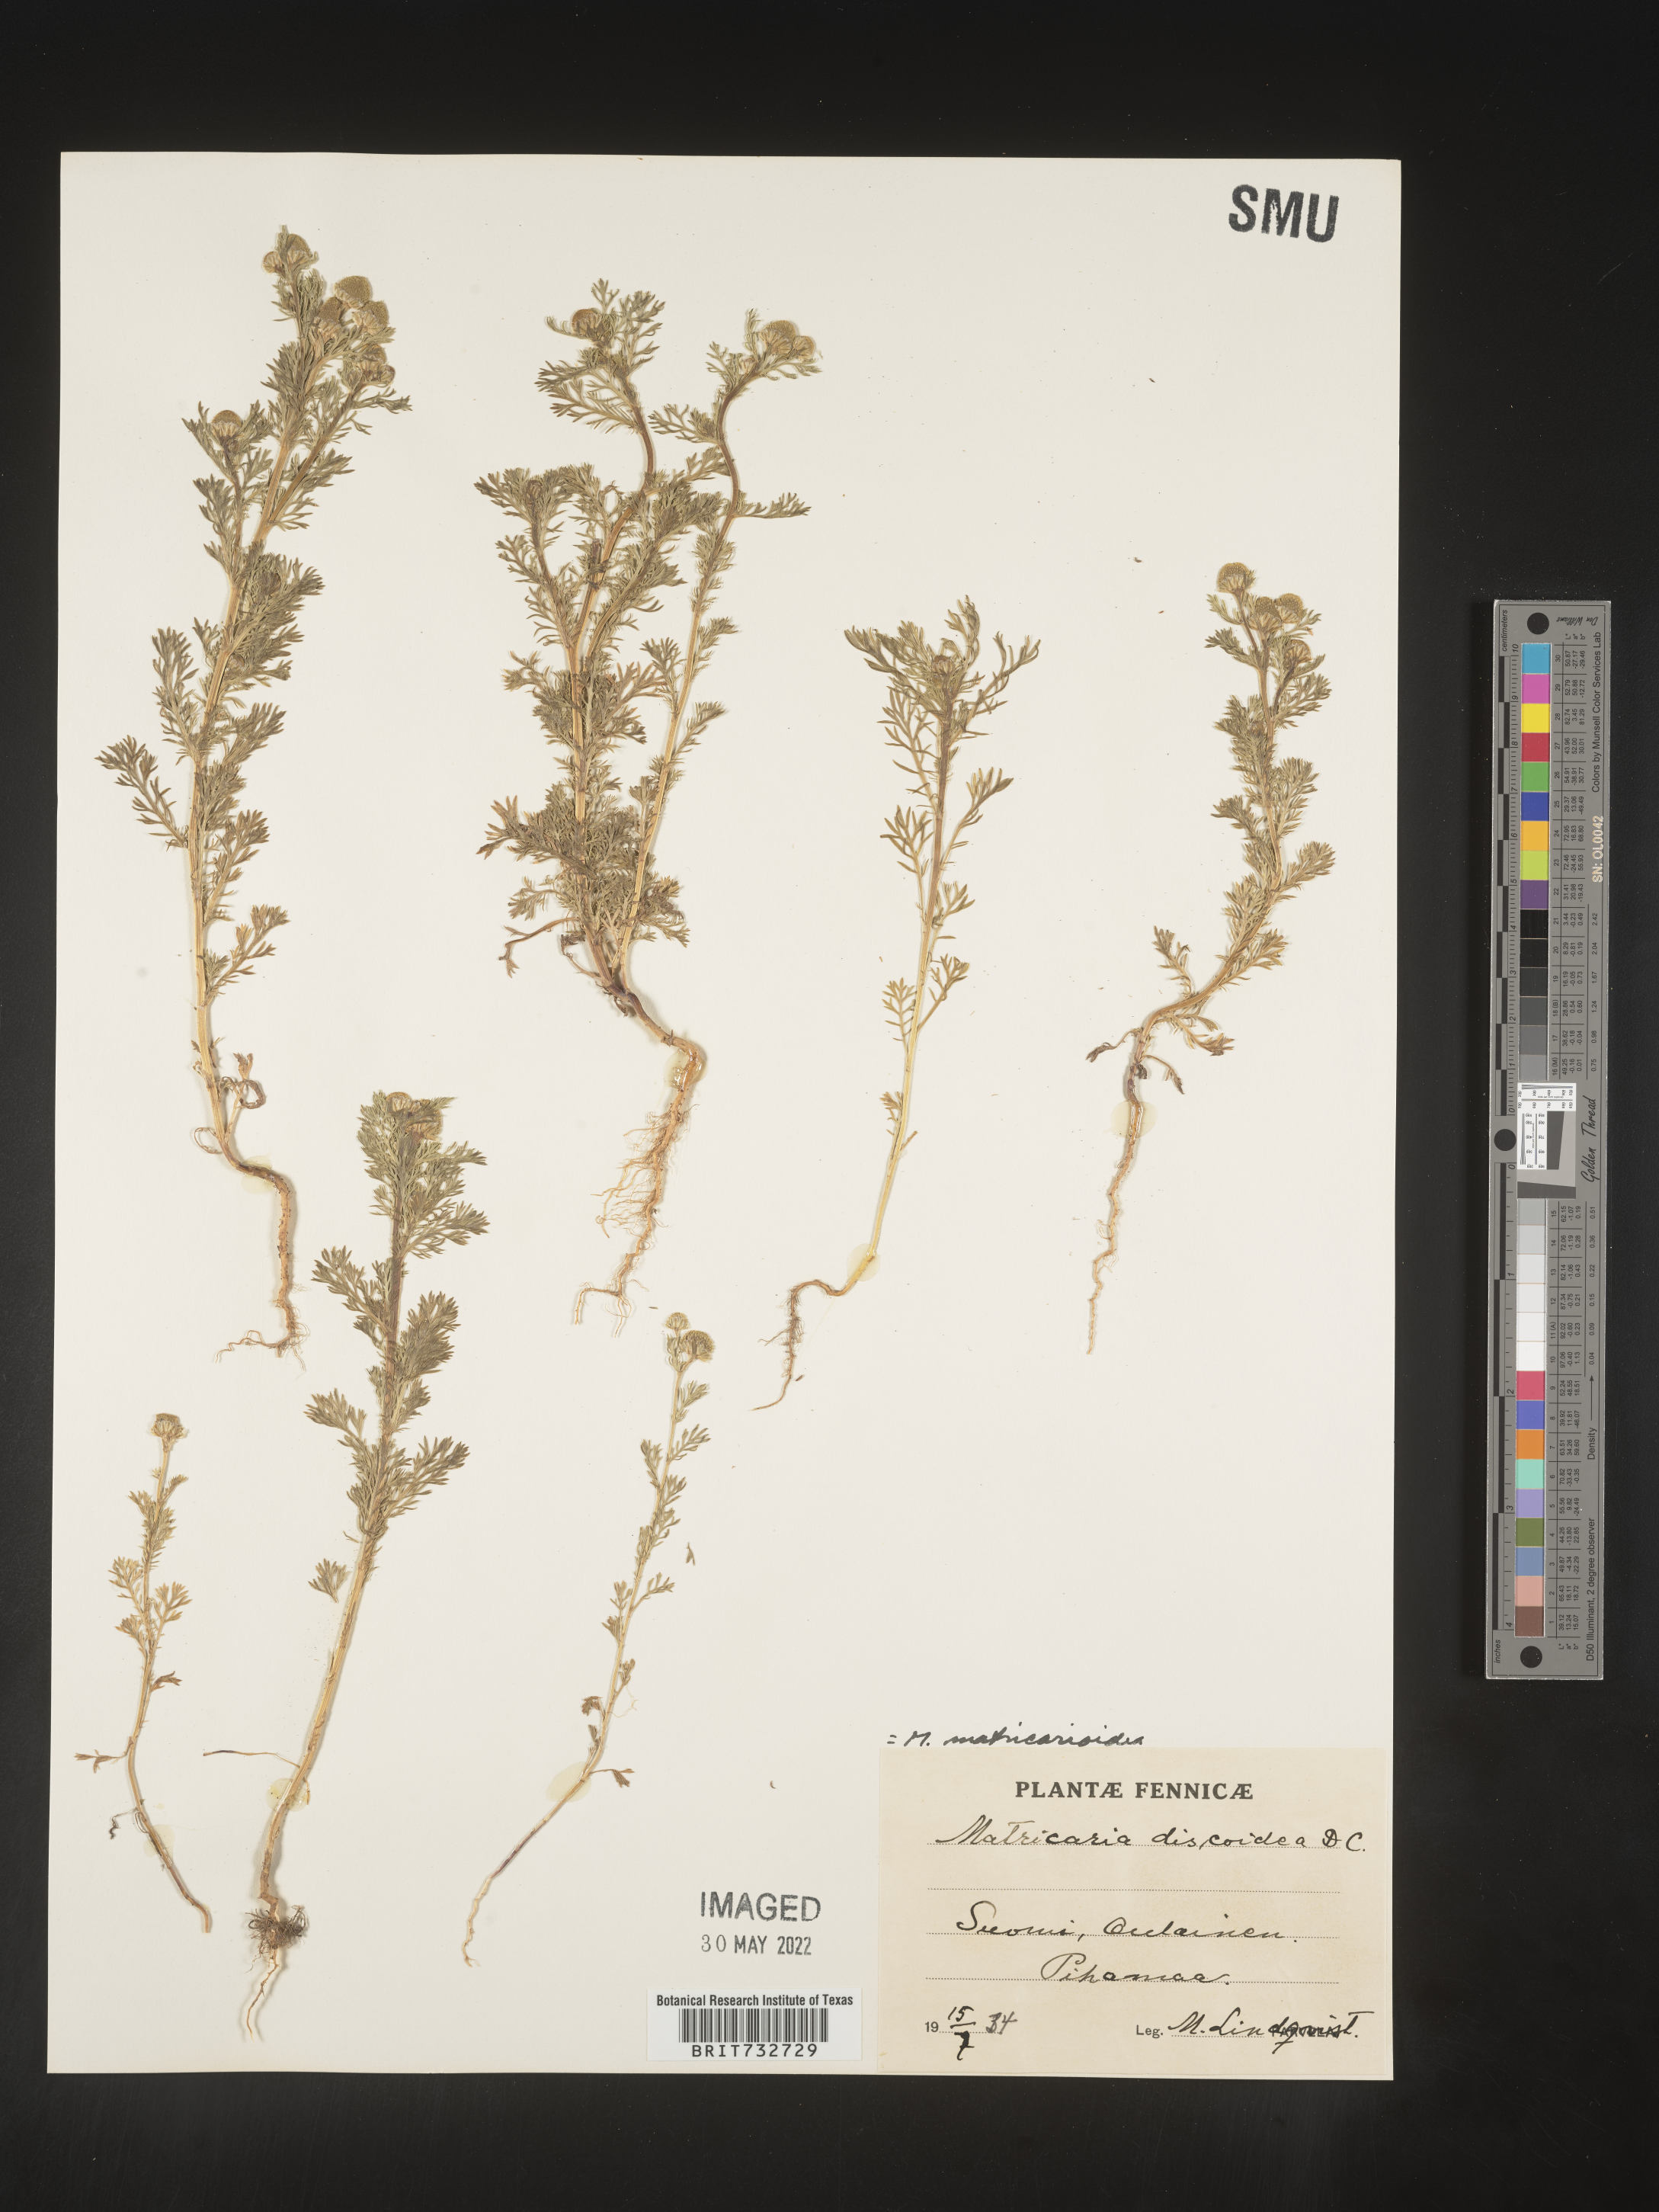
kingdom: Plantae
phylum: Tracheophyta
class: Magnoliopsida
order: Asterales
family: Asteraceae
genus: Matricaria
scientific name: Matricaria
